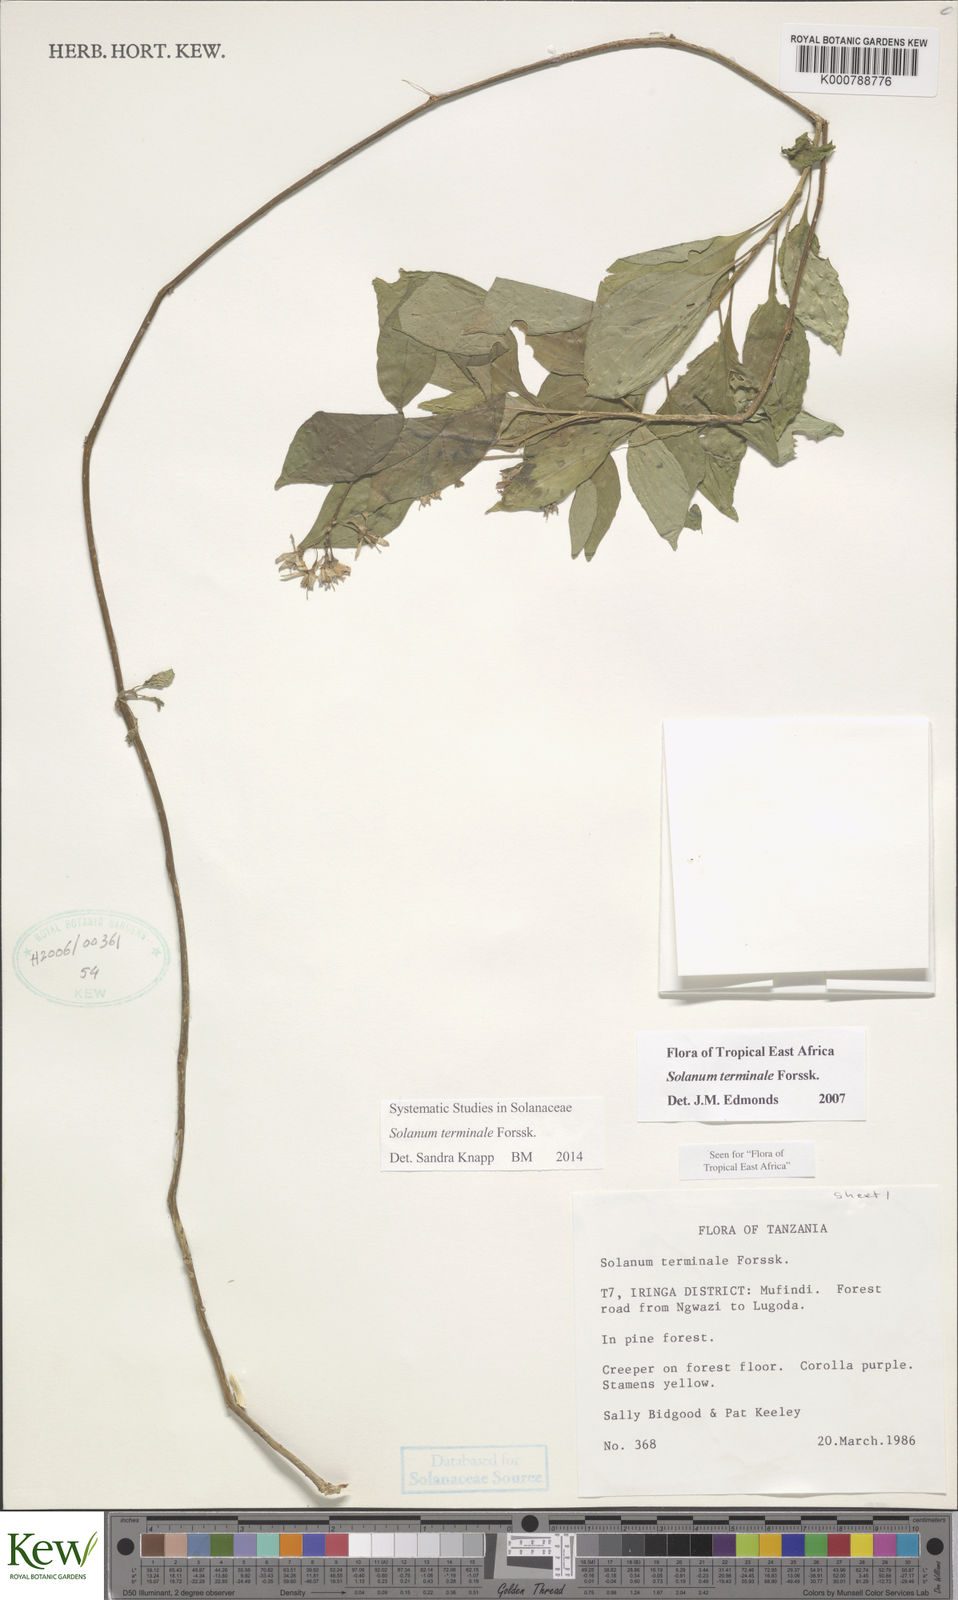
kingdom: Plantae
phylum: Tracheophyta
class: Magnoliopsida
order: Solanales
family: Solanaceae
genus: Solanum
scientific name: Solanum terminale
